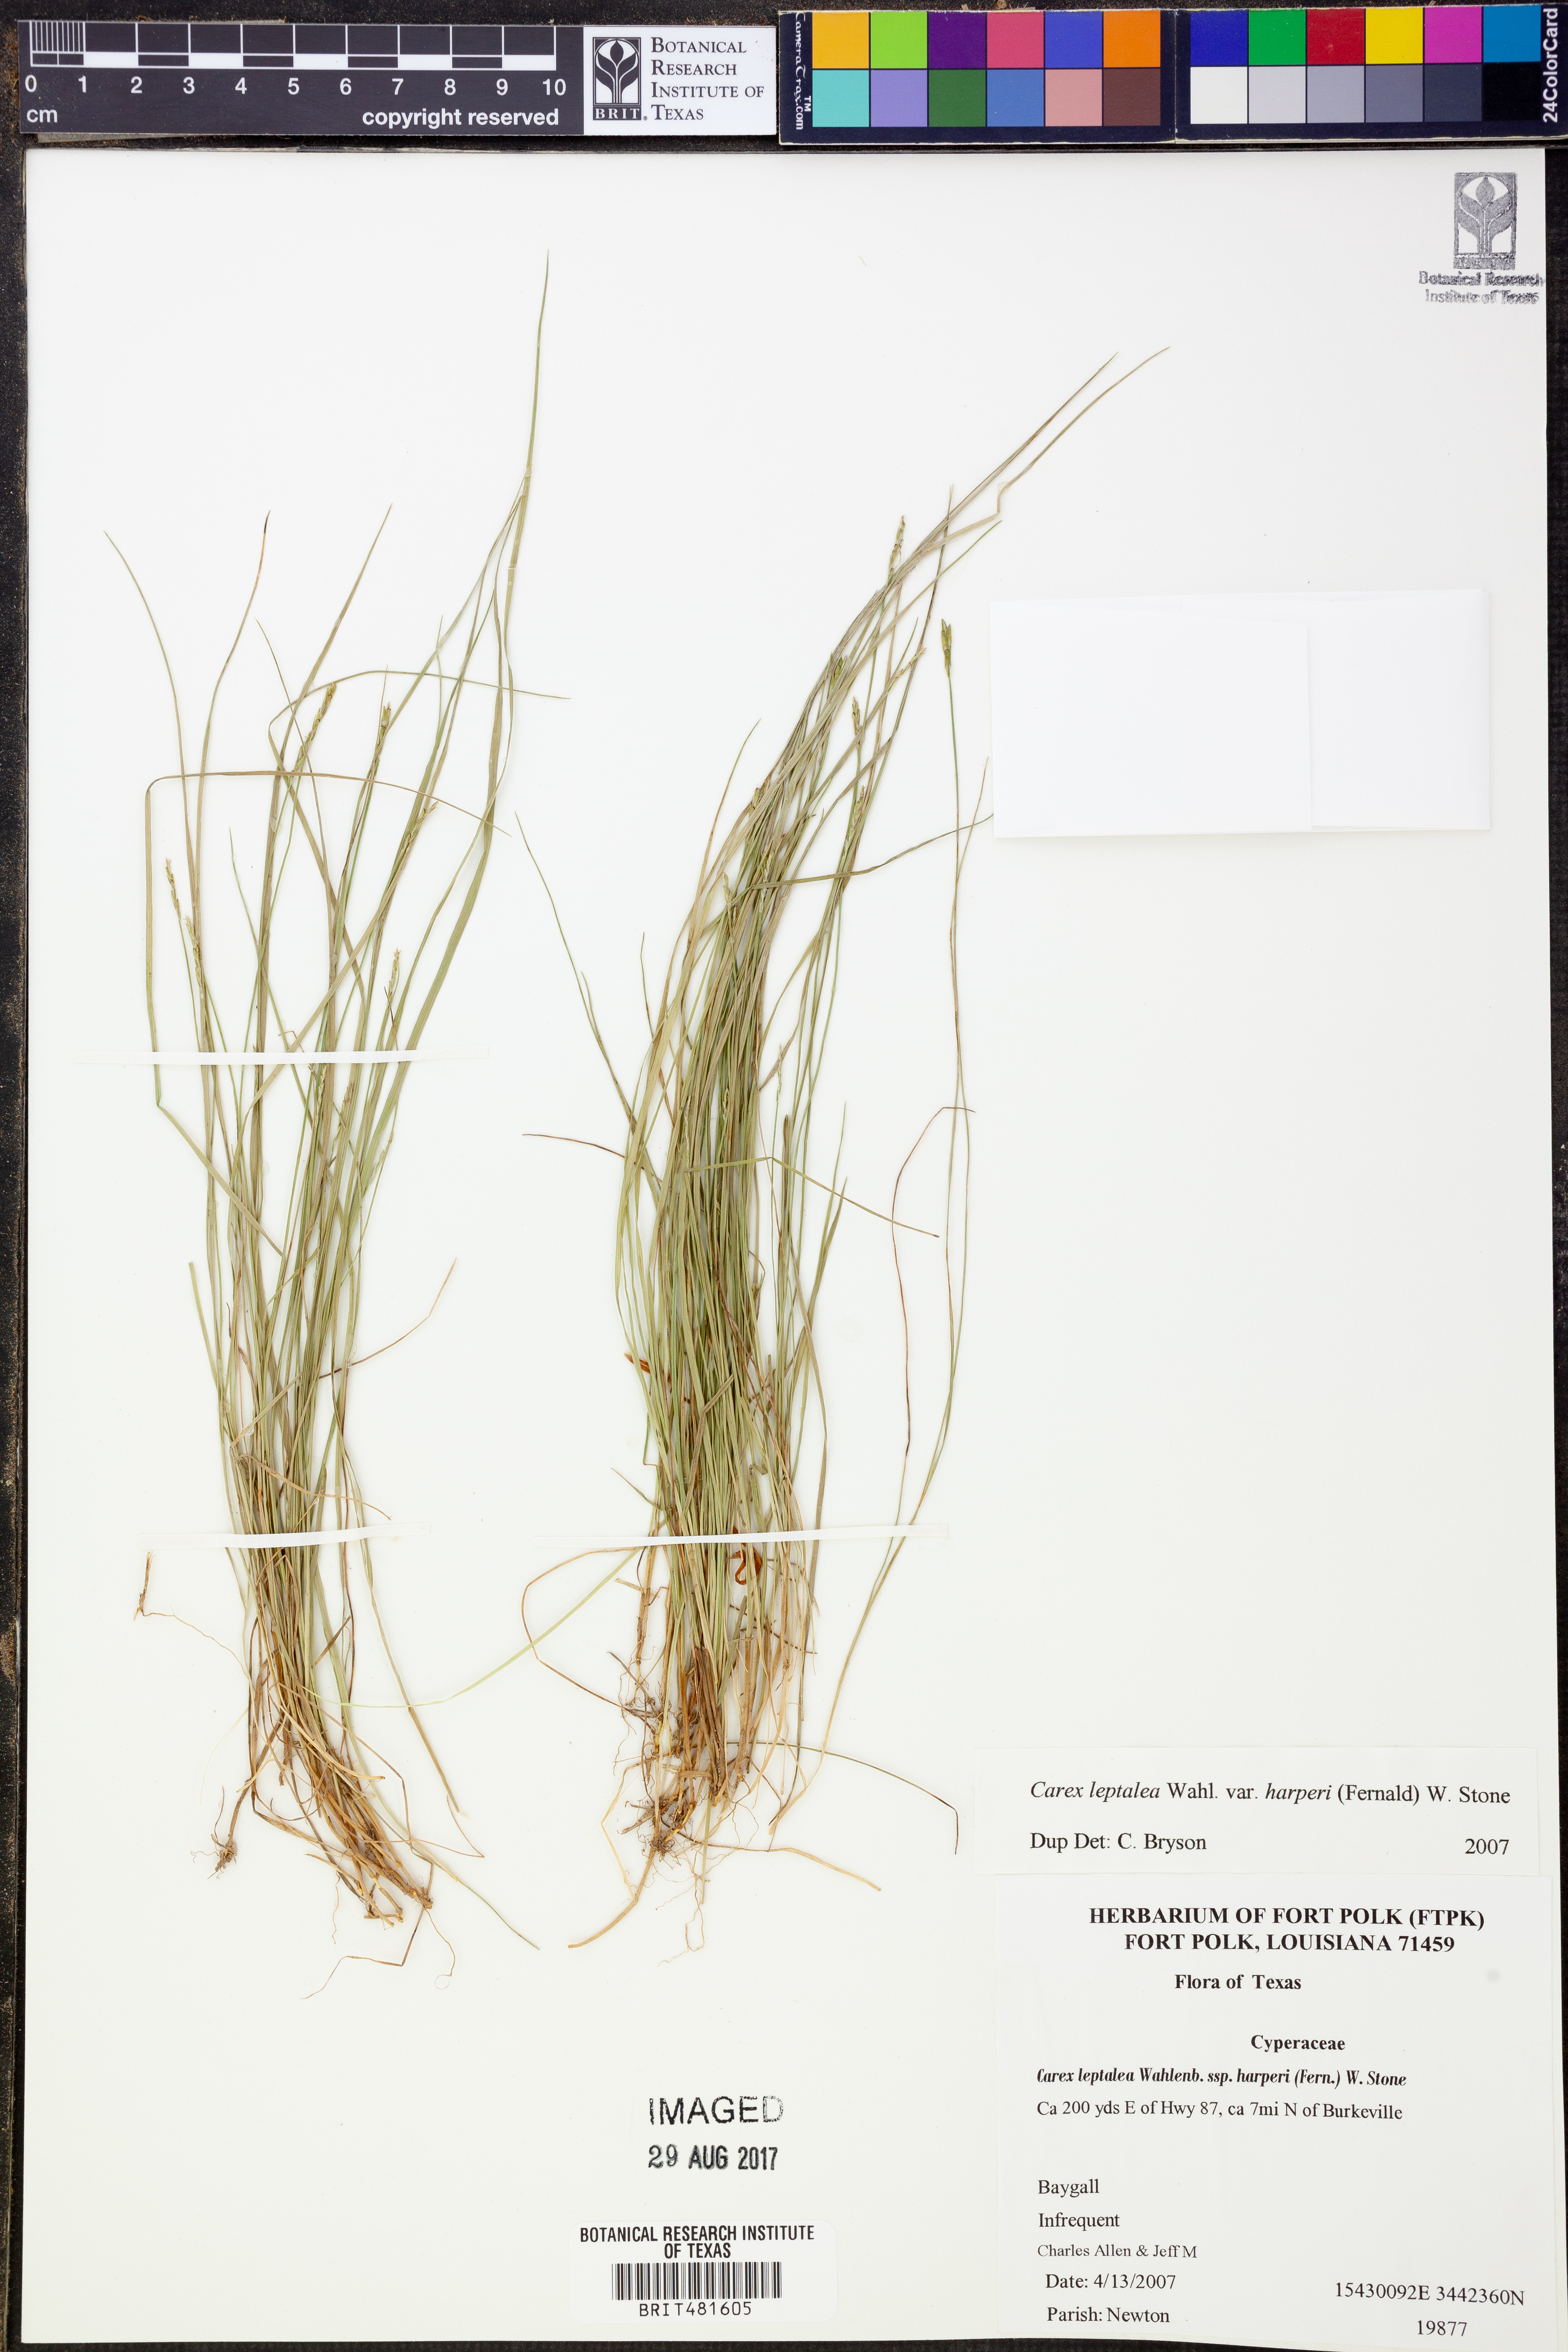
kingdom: Plantae
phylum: Tracheophyta
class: Liliopsida
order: Poales
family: Cyperaceae
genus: Carex
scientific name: Carex leptalea
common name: Bristly-stalked sedge
